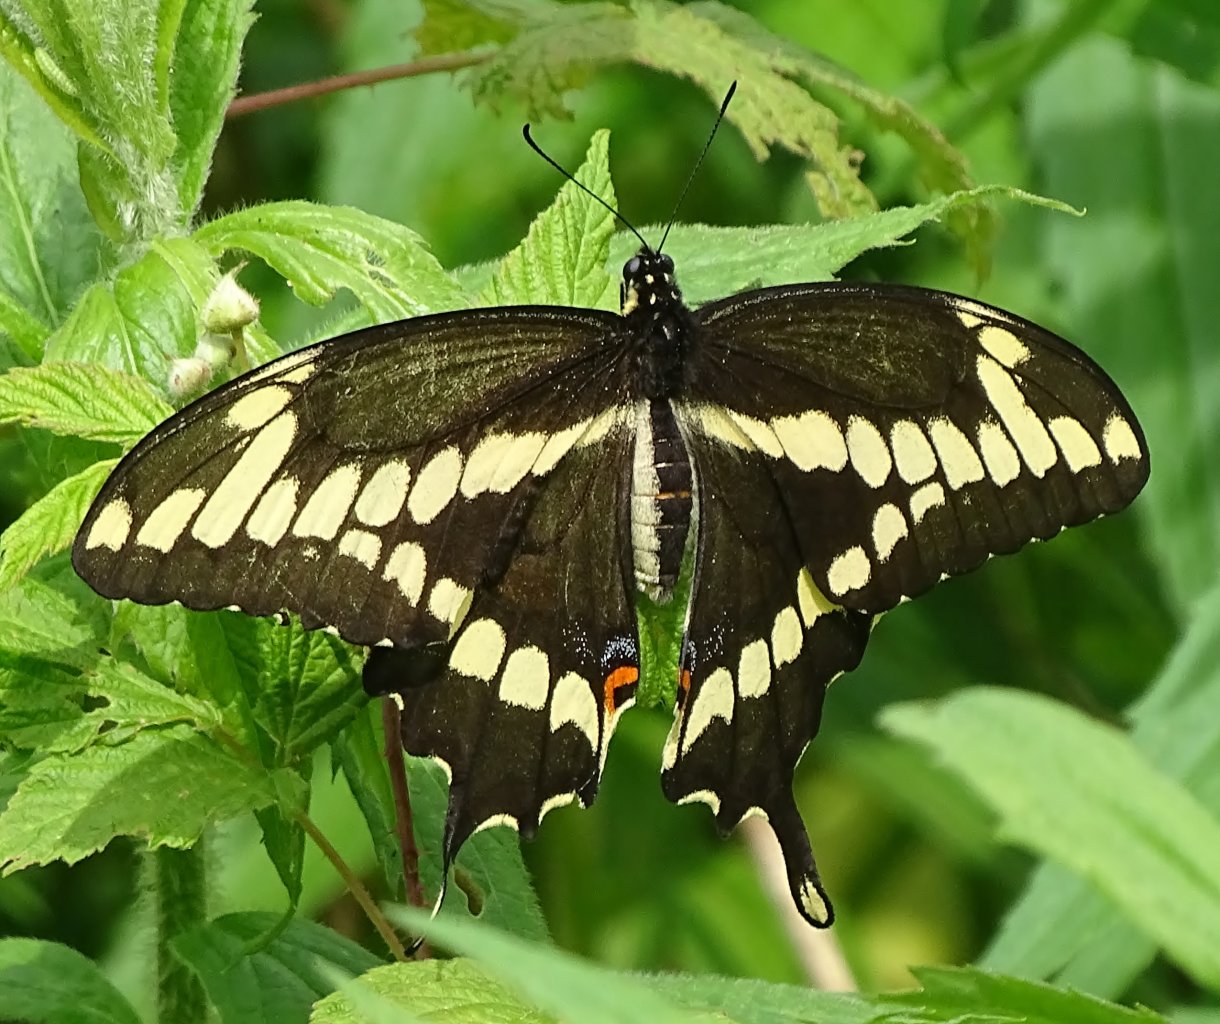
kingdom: Animalia
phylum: Arthropoda
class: Insecta
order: Lepidoptera
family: Papilionidae
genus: Papilio
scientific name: Papilio cresphontes
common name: Eastern Giant Swallowtail
